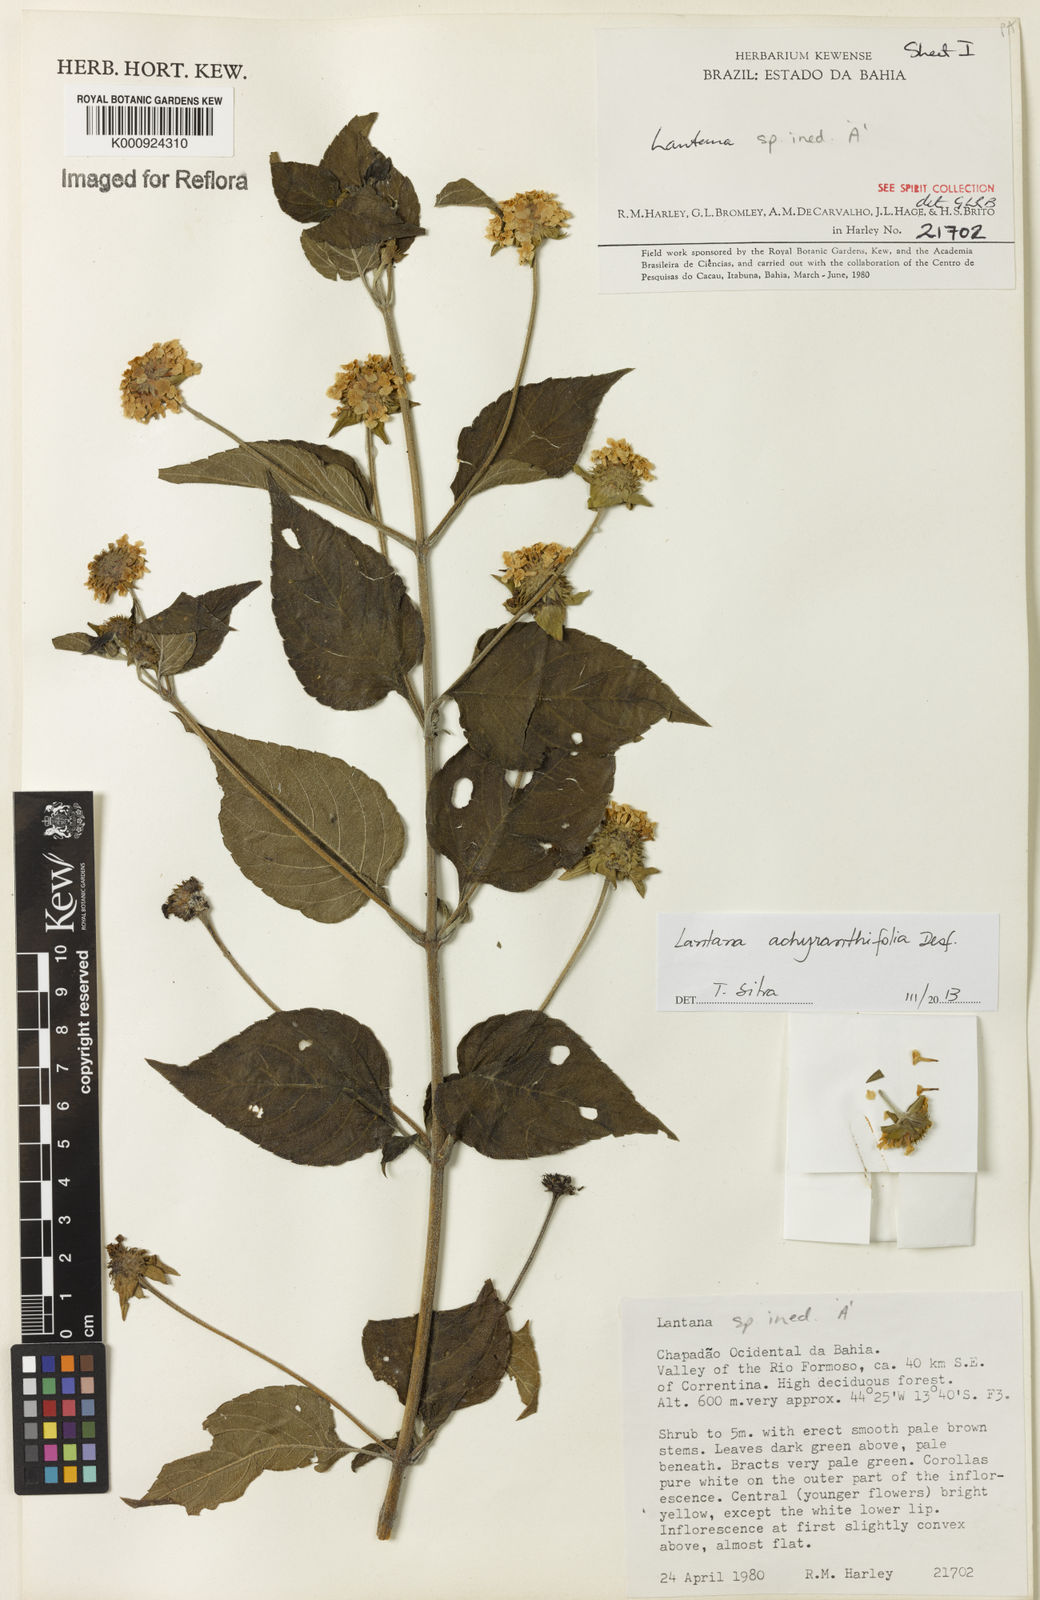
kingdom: Plantae
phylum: Tracheophyta
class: Magnoliopsida
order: Lamiales
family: Verbenaceae
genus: Lantana
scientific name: Lantana achyranthifolia
